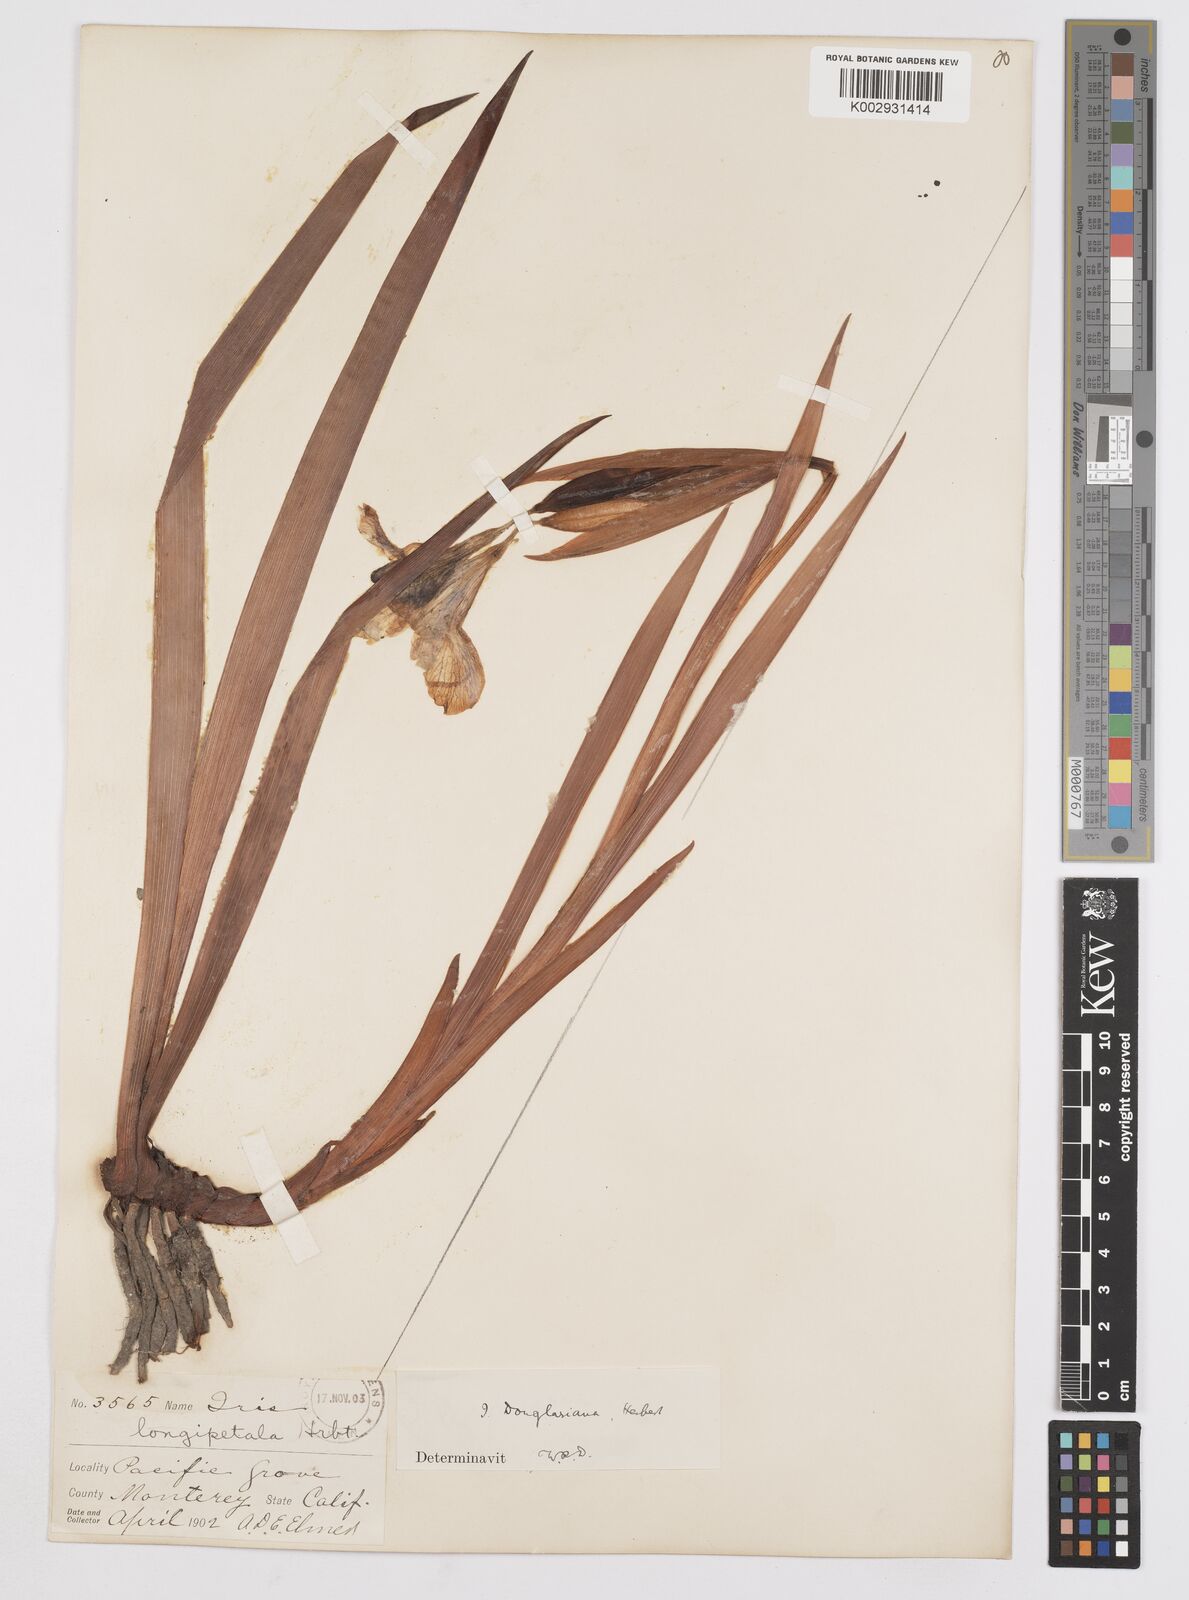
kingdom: Plantae
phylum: Tracheophyta
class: Liliopsida
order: Asparagales
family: Iridaceae
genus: Iris
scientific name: Iris douglasiana
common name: Marin iris
